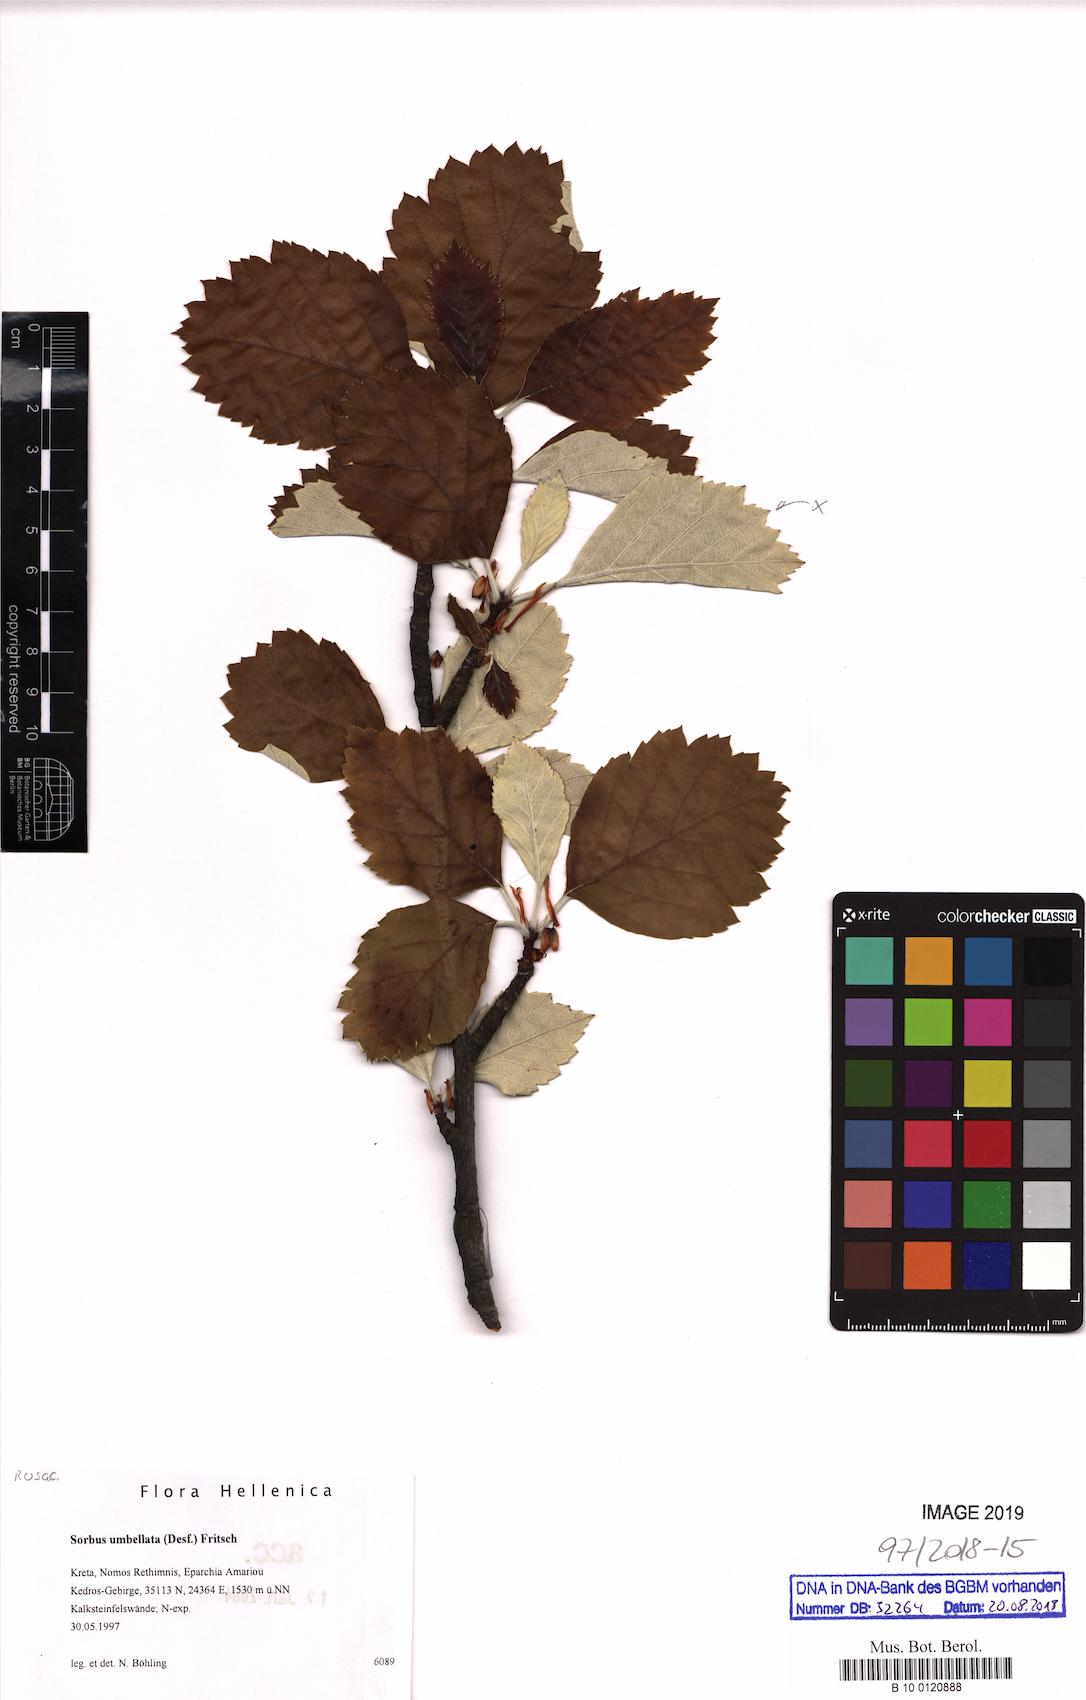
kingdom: Plantae
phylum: Tracheophyta
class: Magnoliopsida
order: Rosales
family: Rosaceae
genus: Aria
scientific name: Aria umbellata
